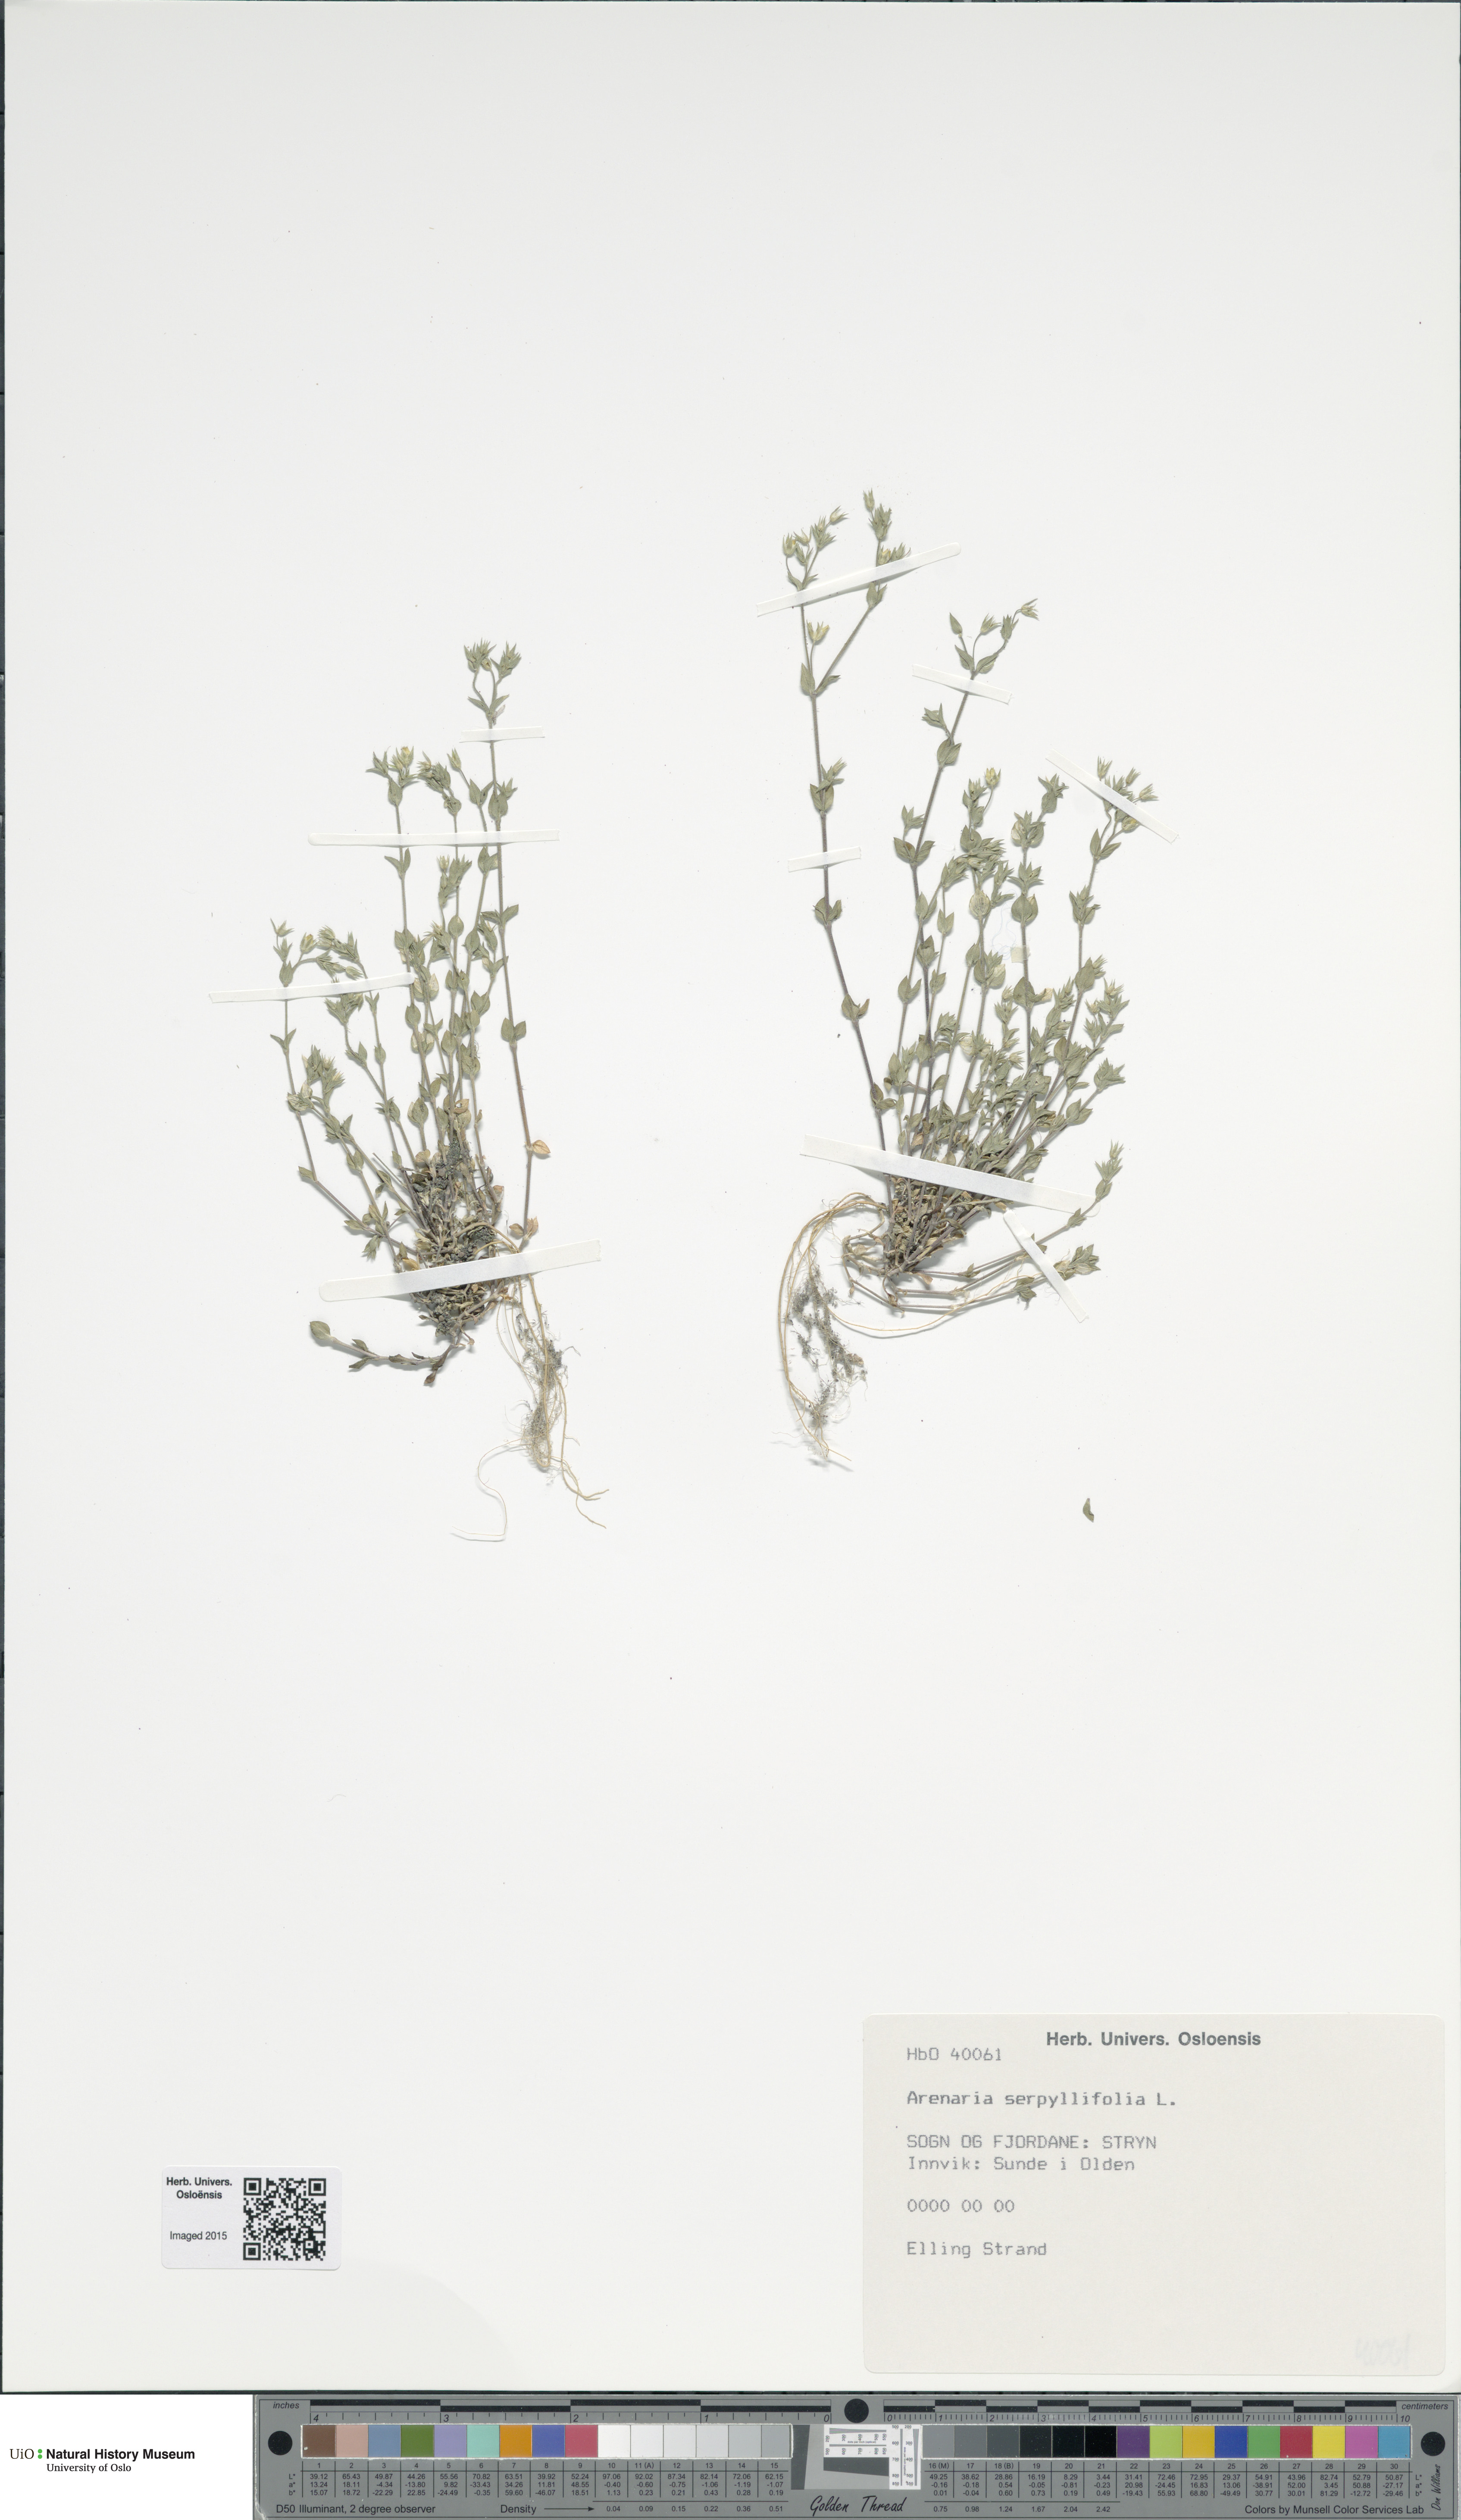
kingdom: Plantae
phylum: Tracheophyta
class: Magnoliopsida
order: Caryophyllales
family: Caryophyllaceae
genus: Arenaria
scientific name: Arenaria serpyllifolia
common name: Thyme-leaved sandwort
